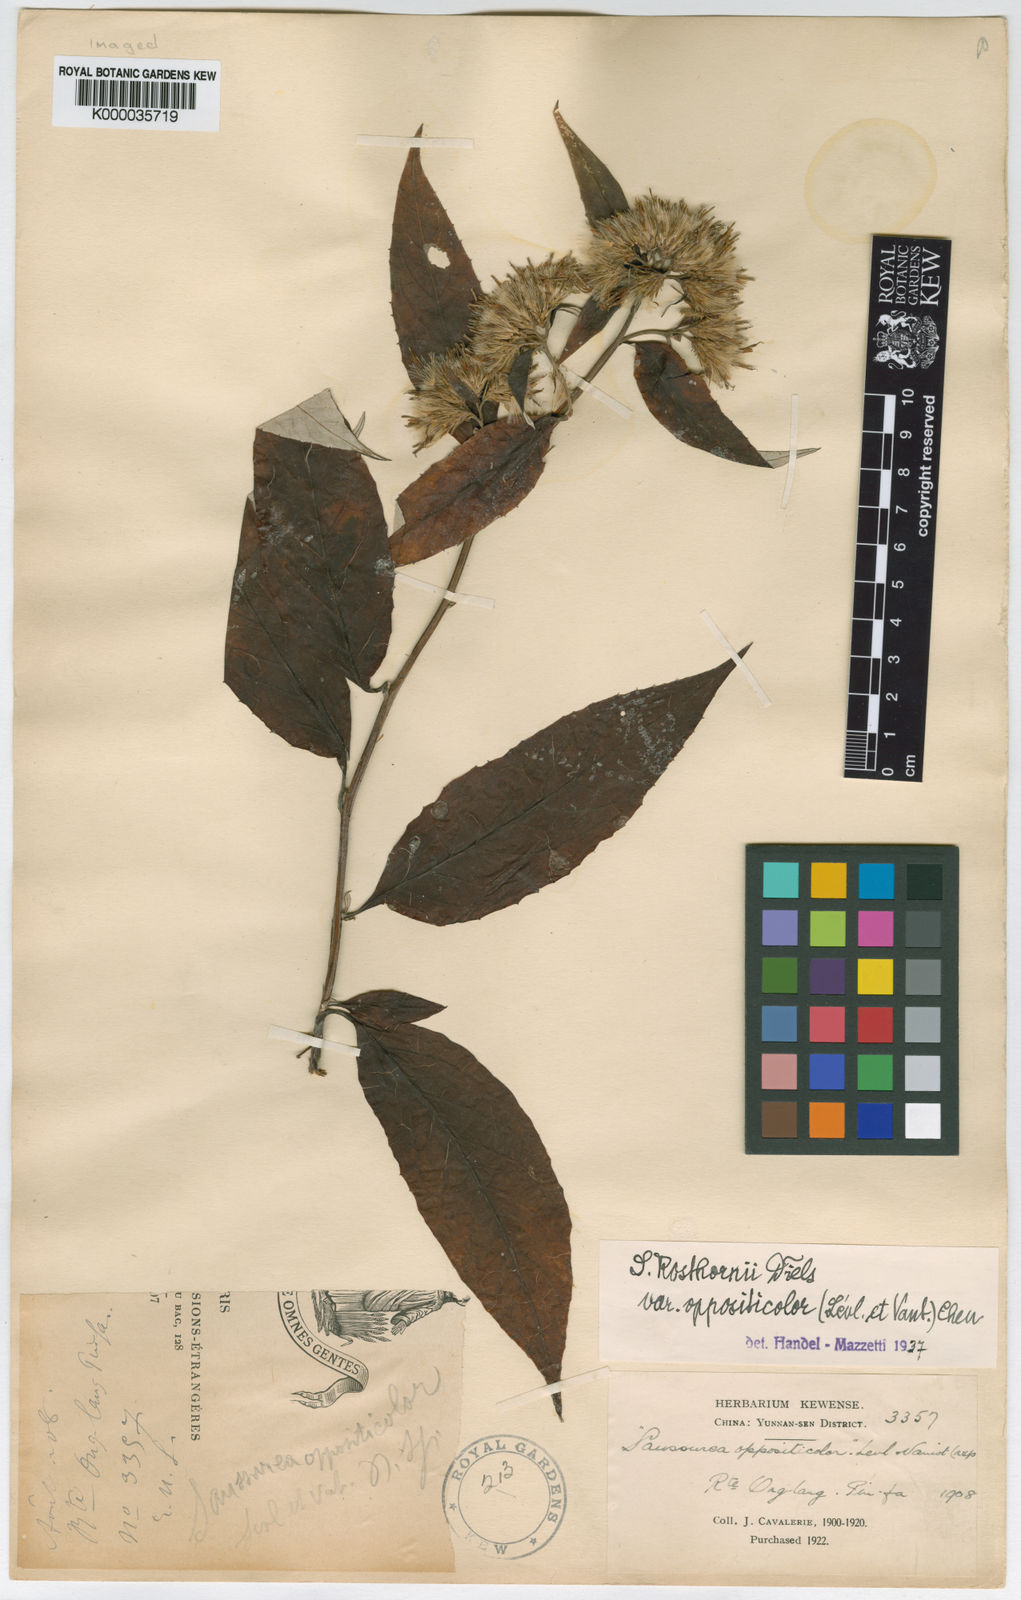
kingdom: Plantae
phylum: Tracheophyta
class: Magnoliopsida
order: Asterales
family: Asteraceae
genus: Saussurea
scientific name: Saussurea conyzoides
